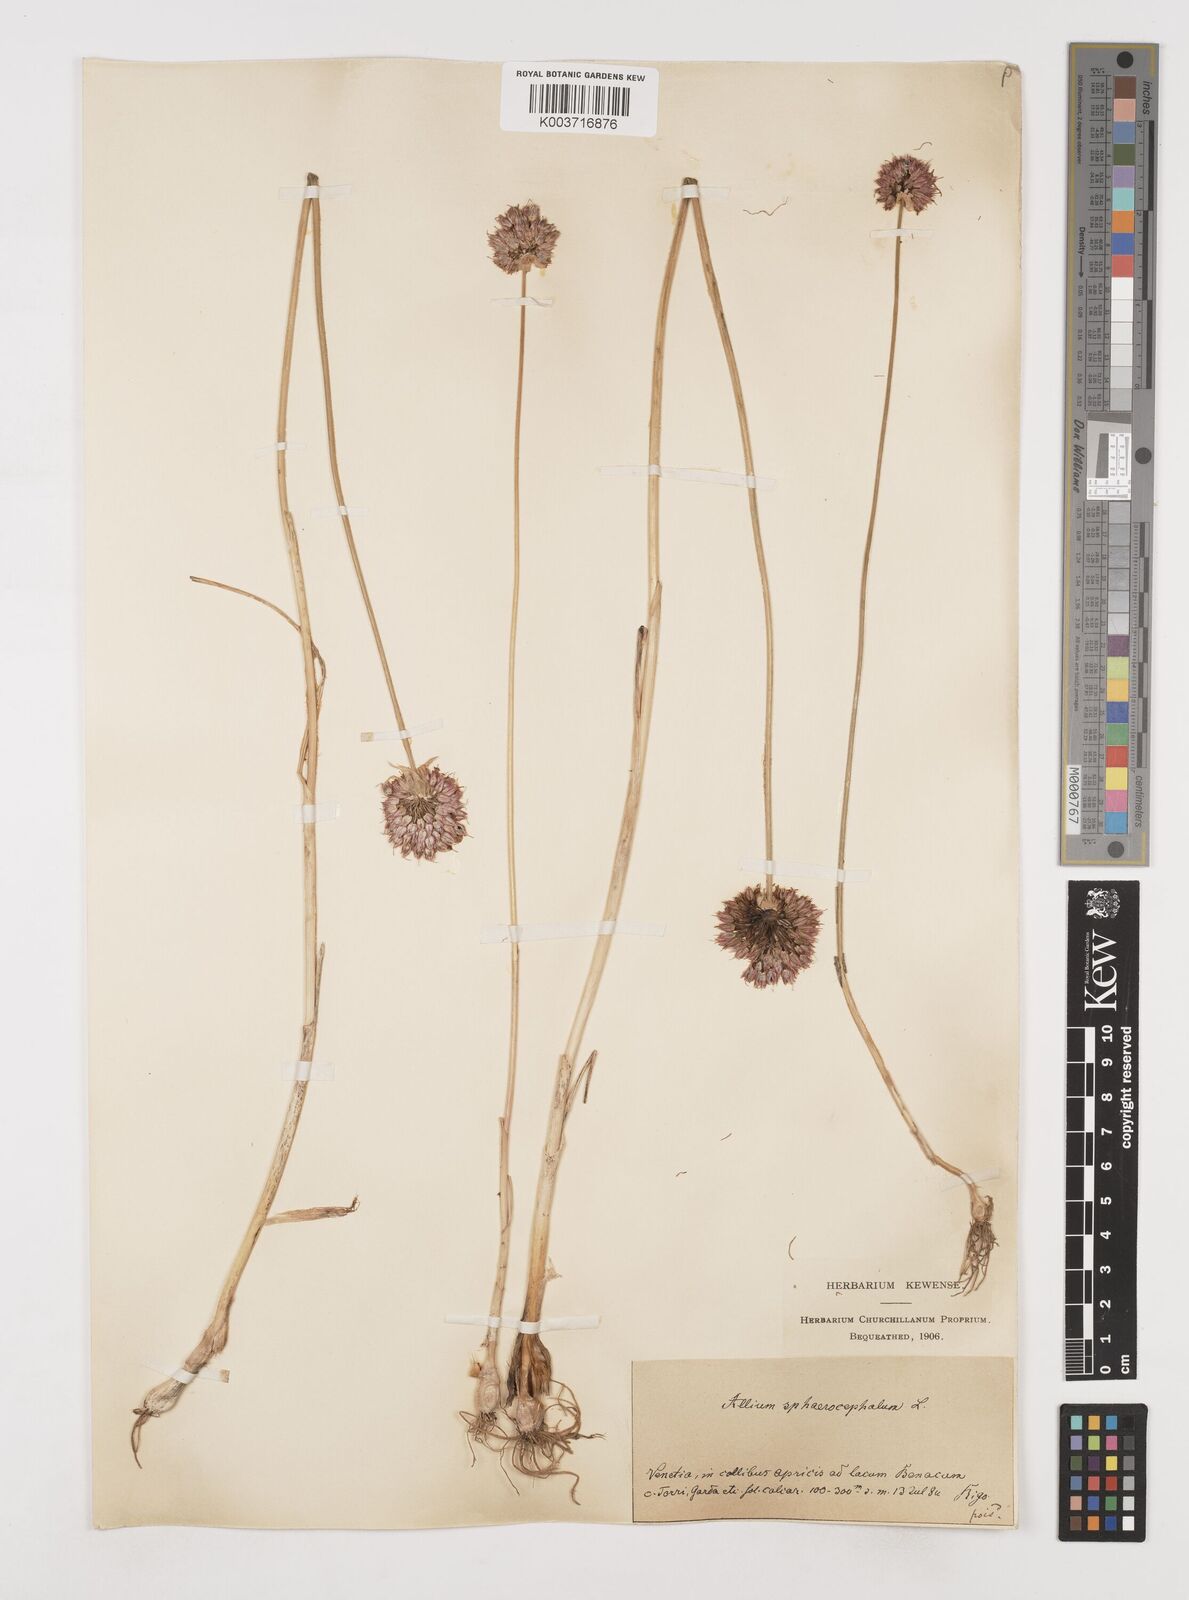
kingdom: Plantae
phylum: Tracheophyta
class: Liliopsida
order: Asparagales
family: Amaryllidaceae
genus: Allium
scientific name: Allium sphaerocephalon
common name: Round-headed leek
